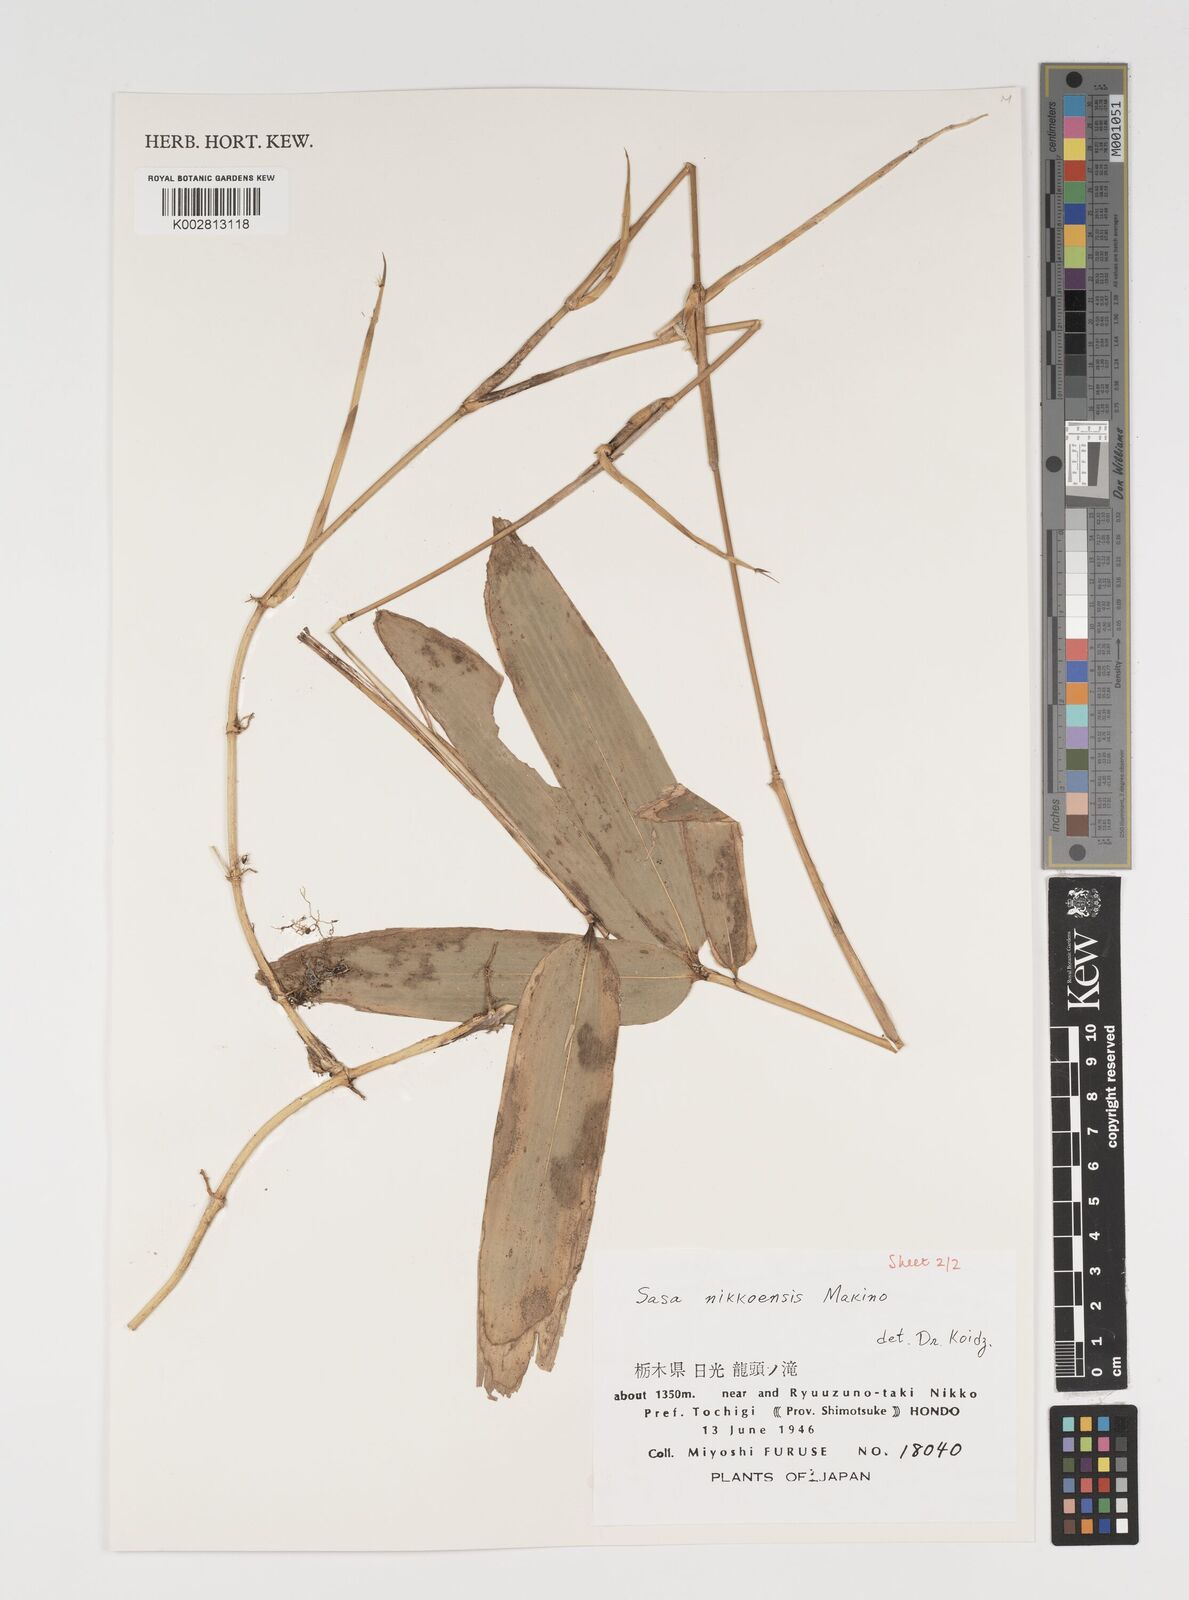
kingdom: Plantae
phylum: Tracheophyta
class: Liliopsida
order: Poales
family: Poaceae
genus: Sasa
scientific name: Sasa chartacea
